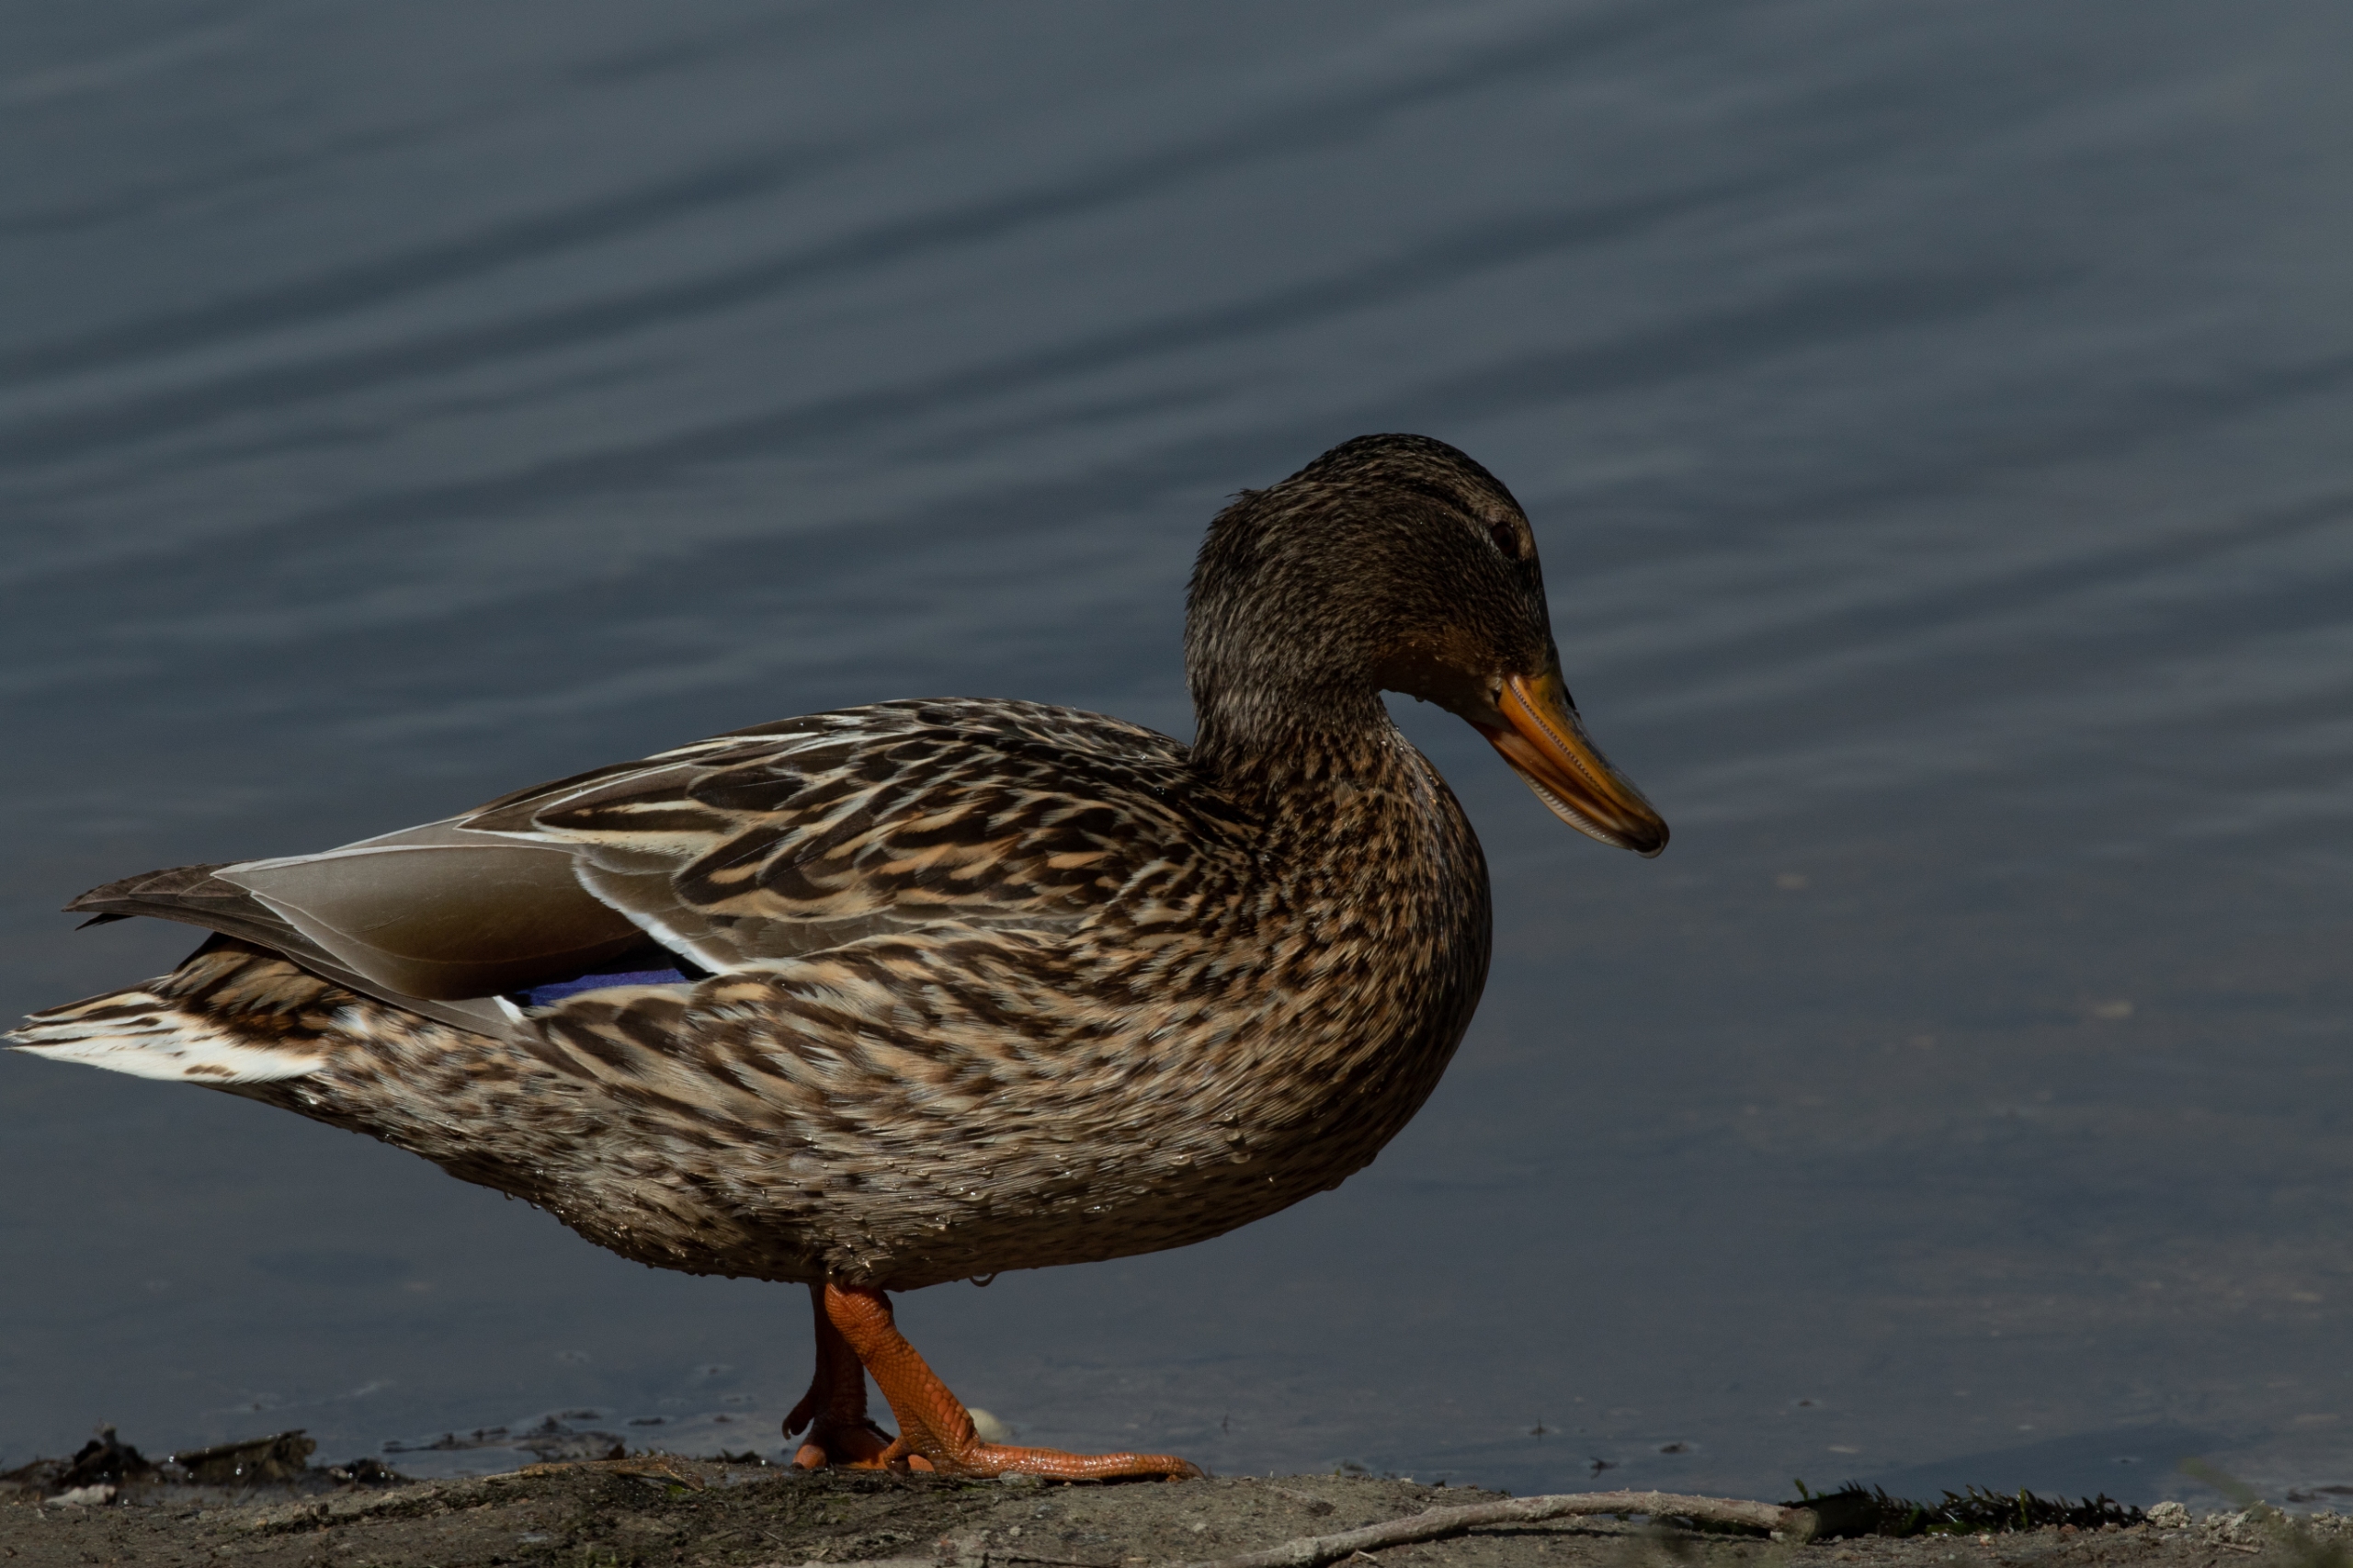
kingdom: Animalia
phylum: Chordata
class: Aves
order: Anseriformes
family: Anatidae
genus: Anas
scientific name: Anas platyrhynchos
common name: Gråand
